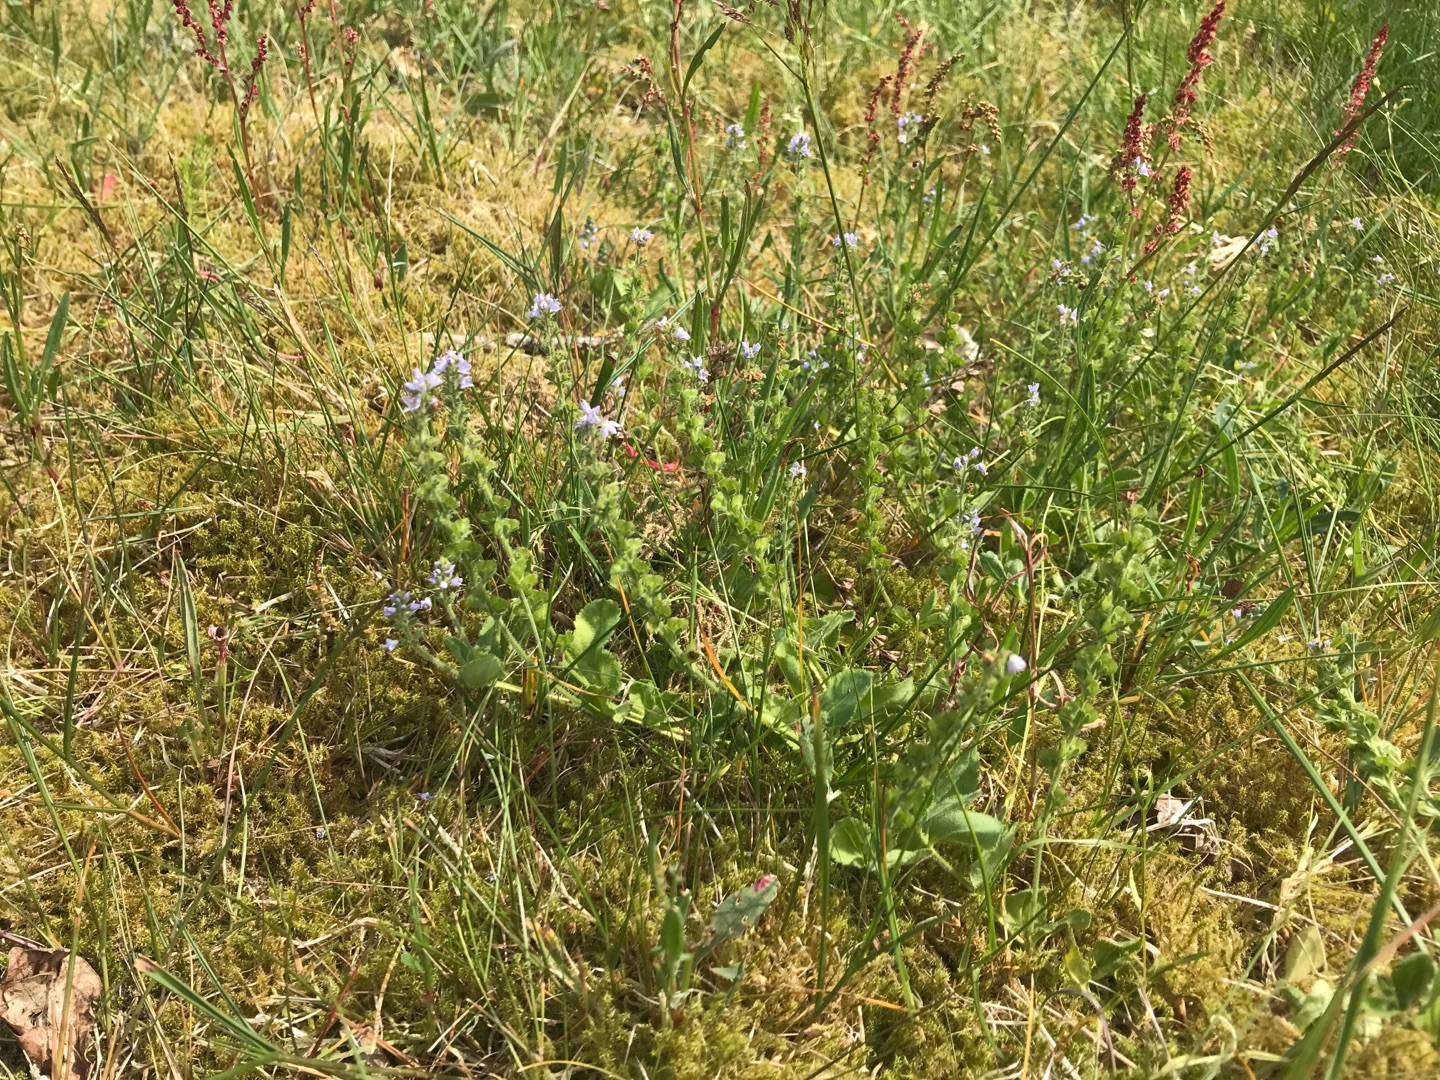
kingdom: Plantae
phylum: Tracheophyta
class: Magnoliopsida
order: Lamiales
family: Plantaginaceae
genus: Veronica
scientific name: Veronica officinalis
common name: Læge-ærenpris
